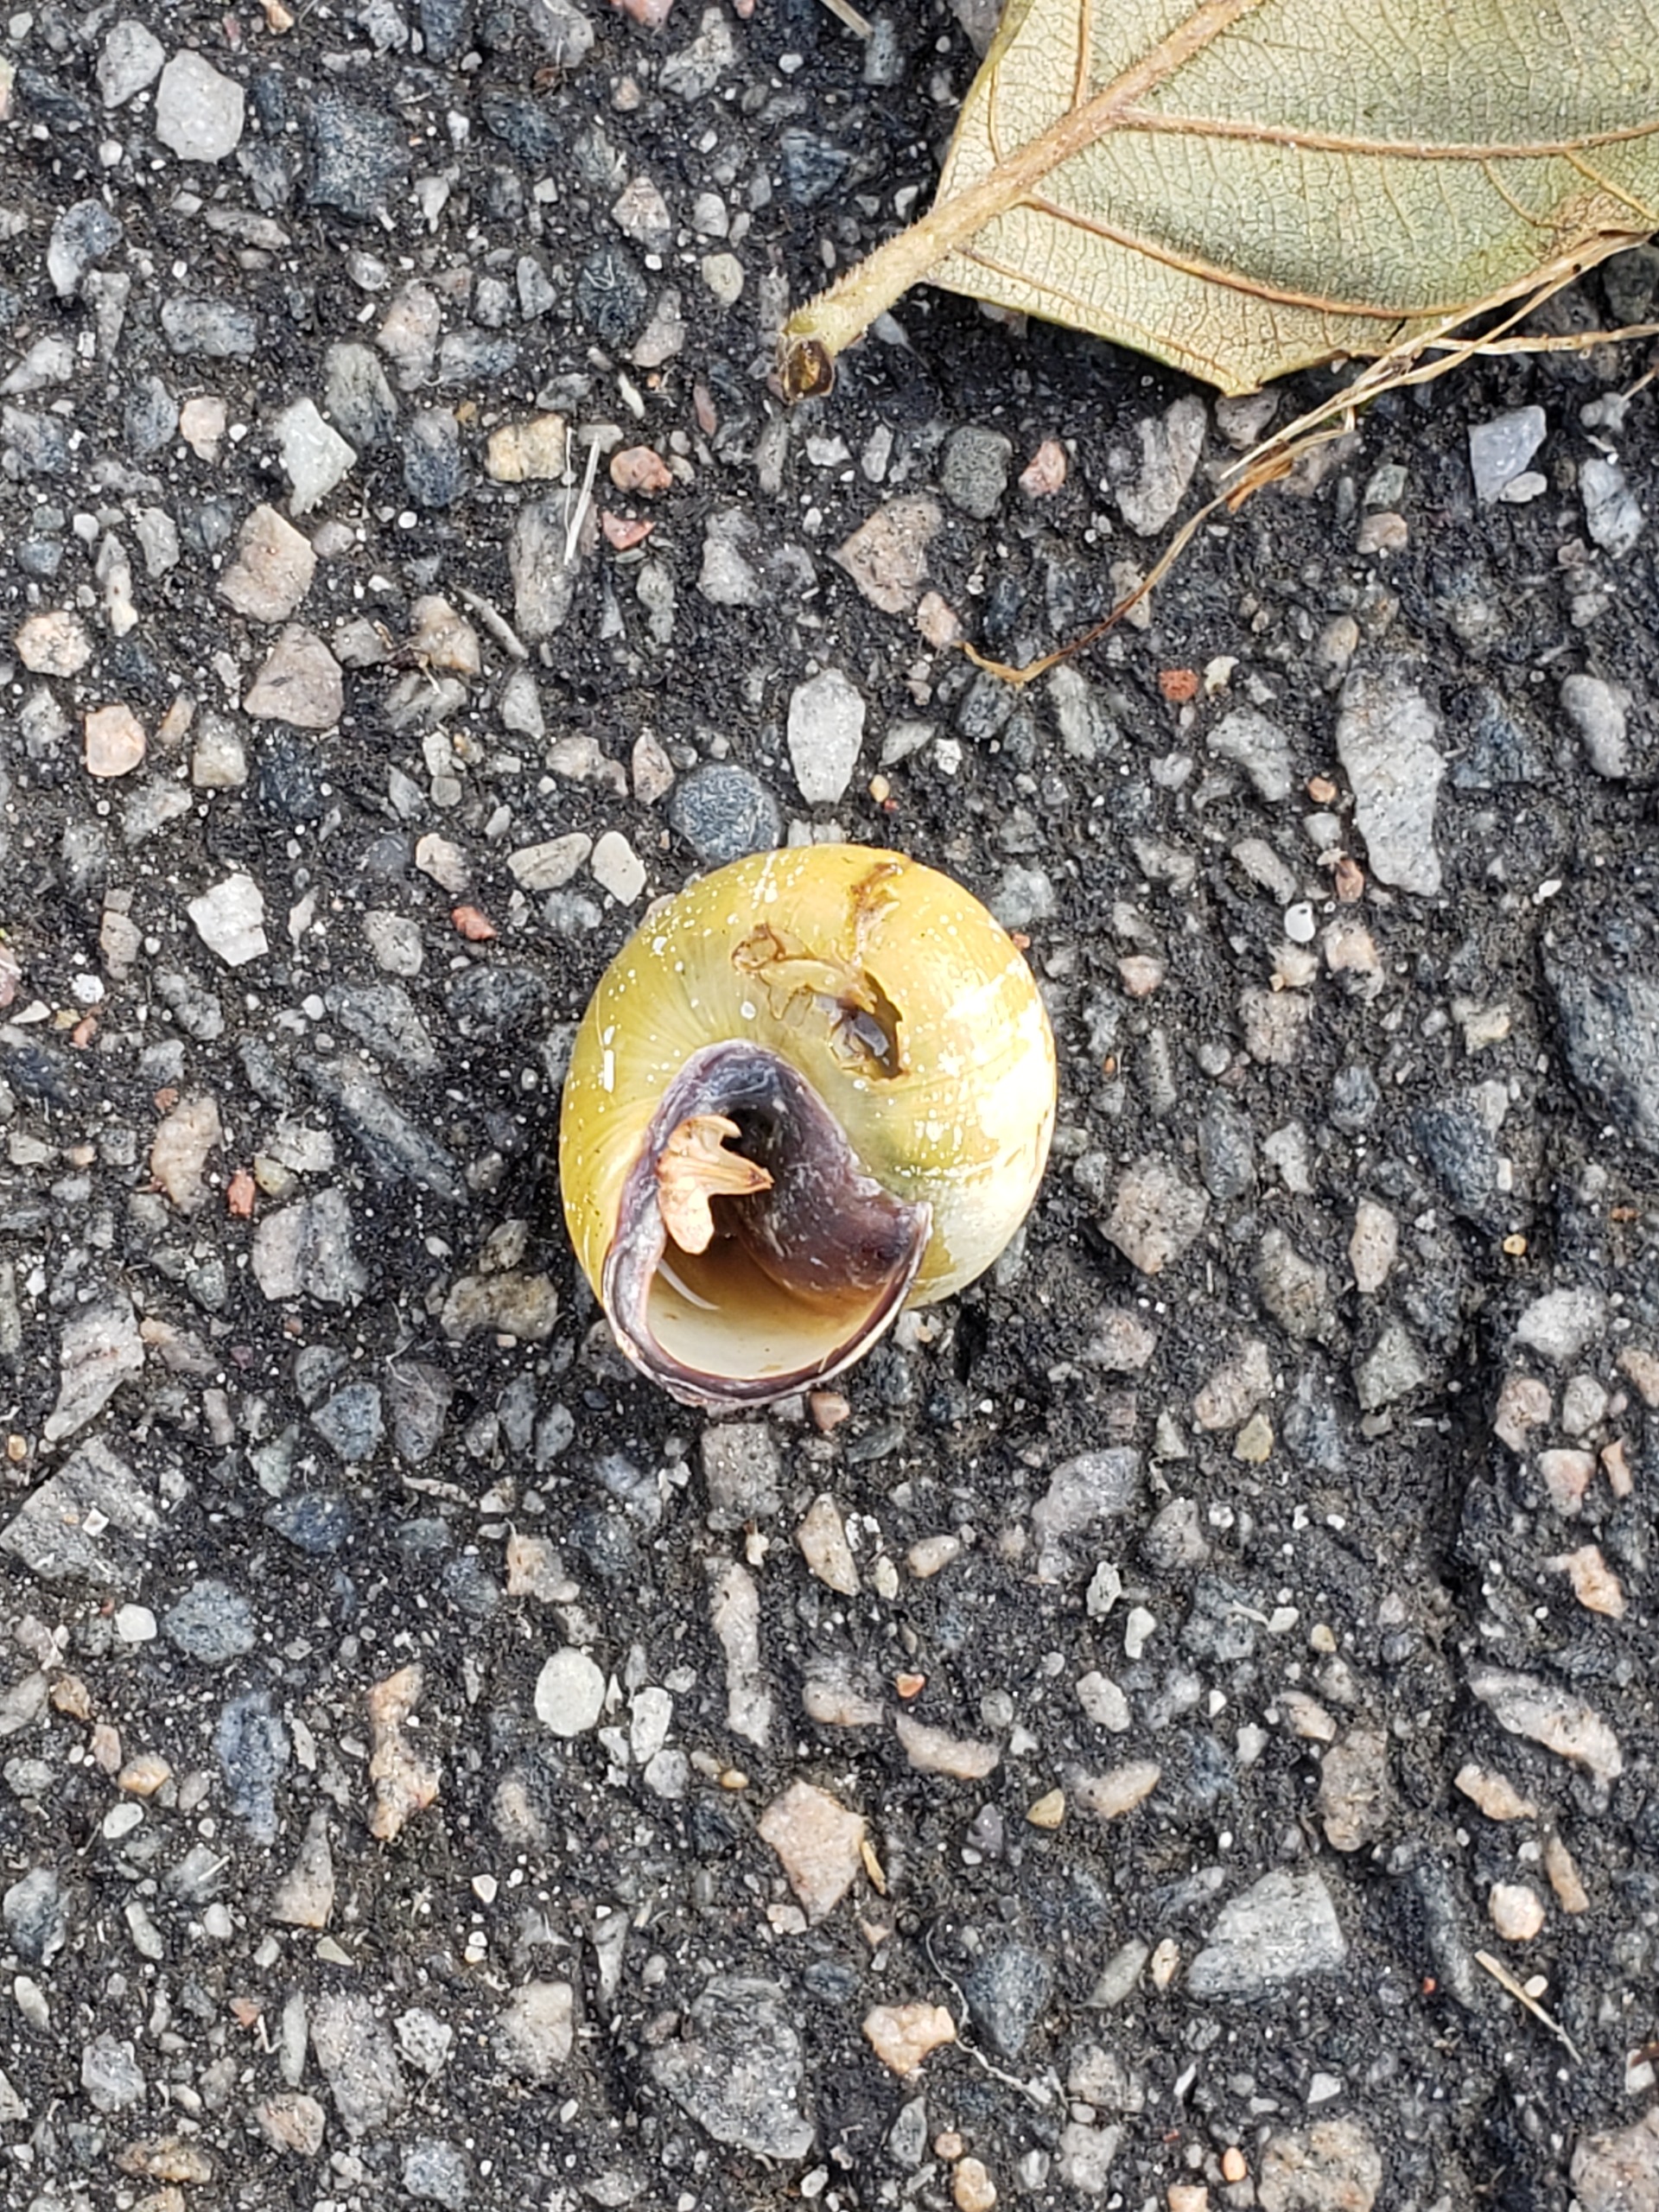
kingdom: Animalia
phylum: Mollusca
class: Gastropoda
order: Stylommatophora
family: Helicidae
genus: Cepaea
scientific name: Cepaea nemoralis
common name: Lundsnegl
